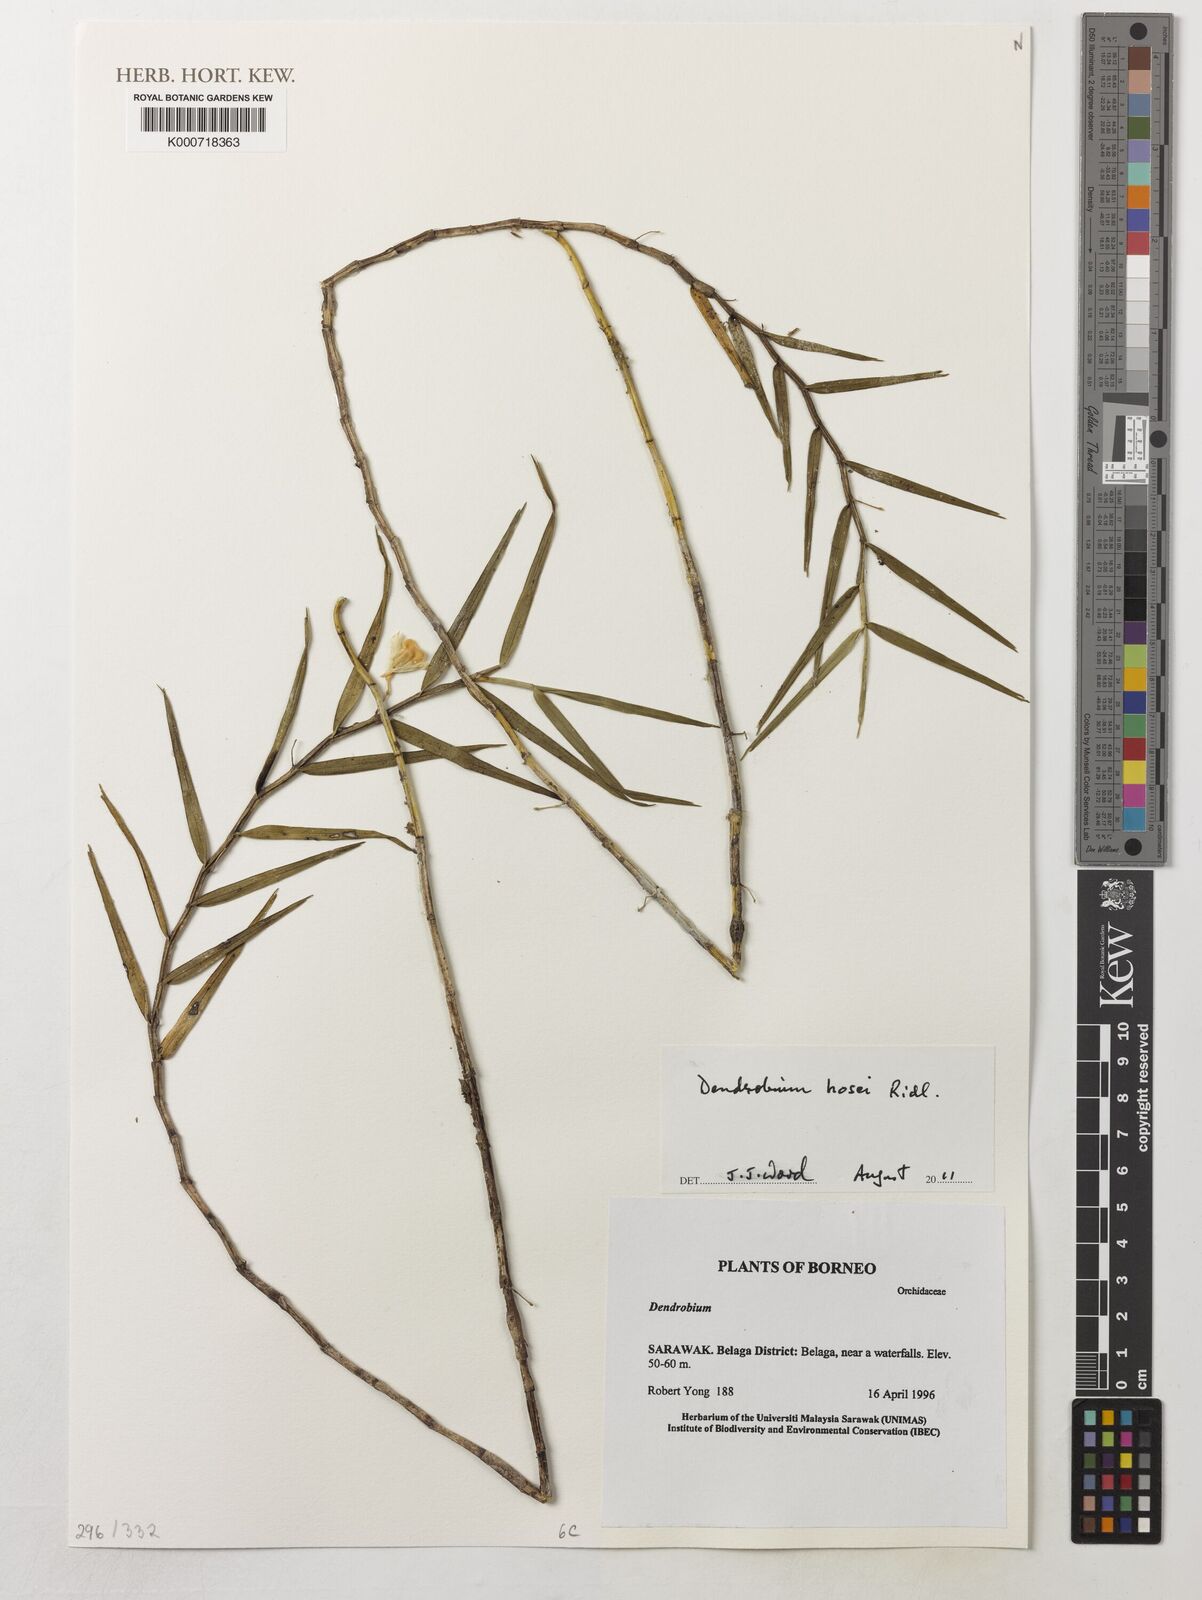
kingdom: Plantae
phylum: Tracheophyta
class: Liliopsida
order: Asparagales
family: Orchidaceae
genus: Dendrobium
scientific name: Dendrobium hosei
